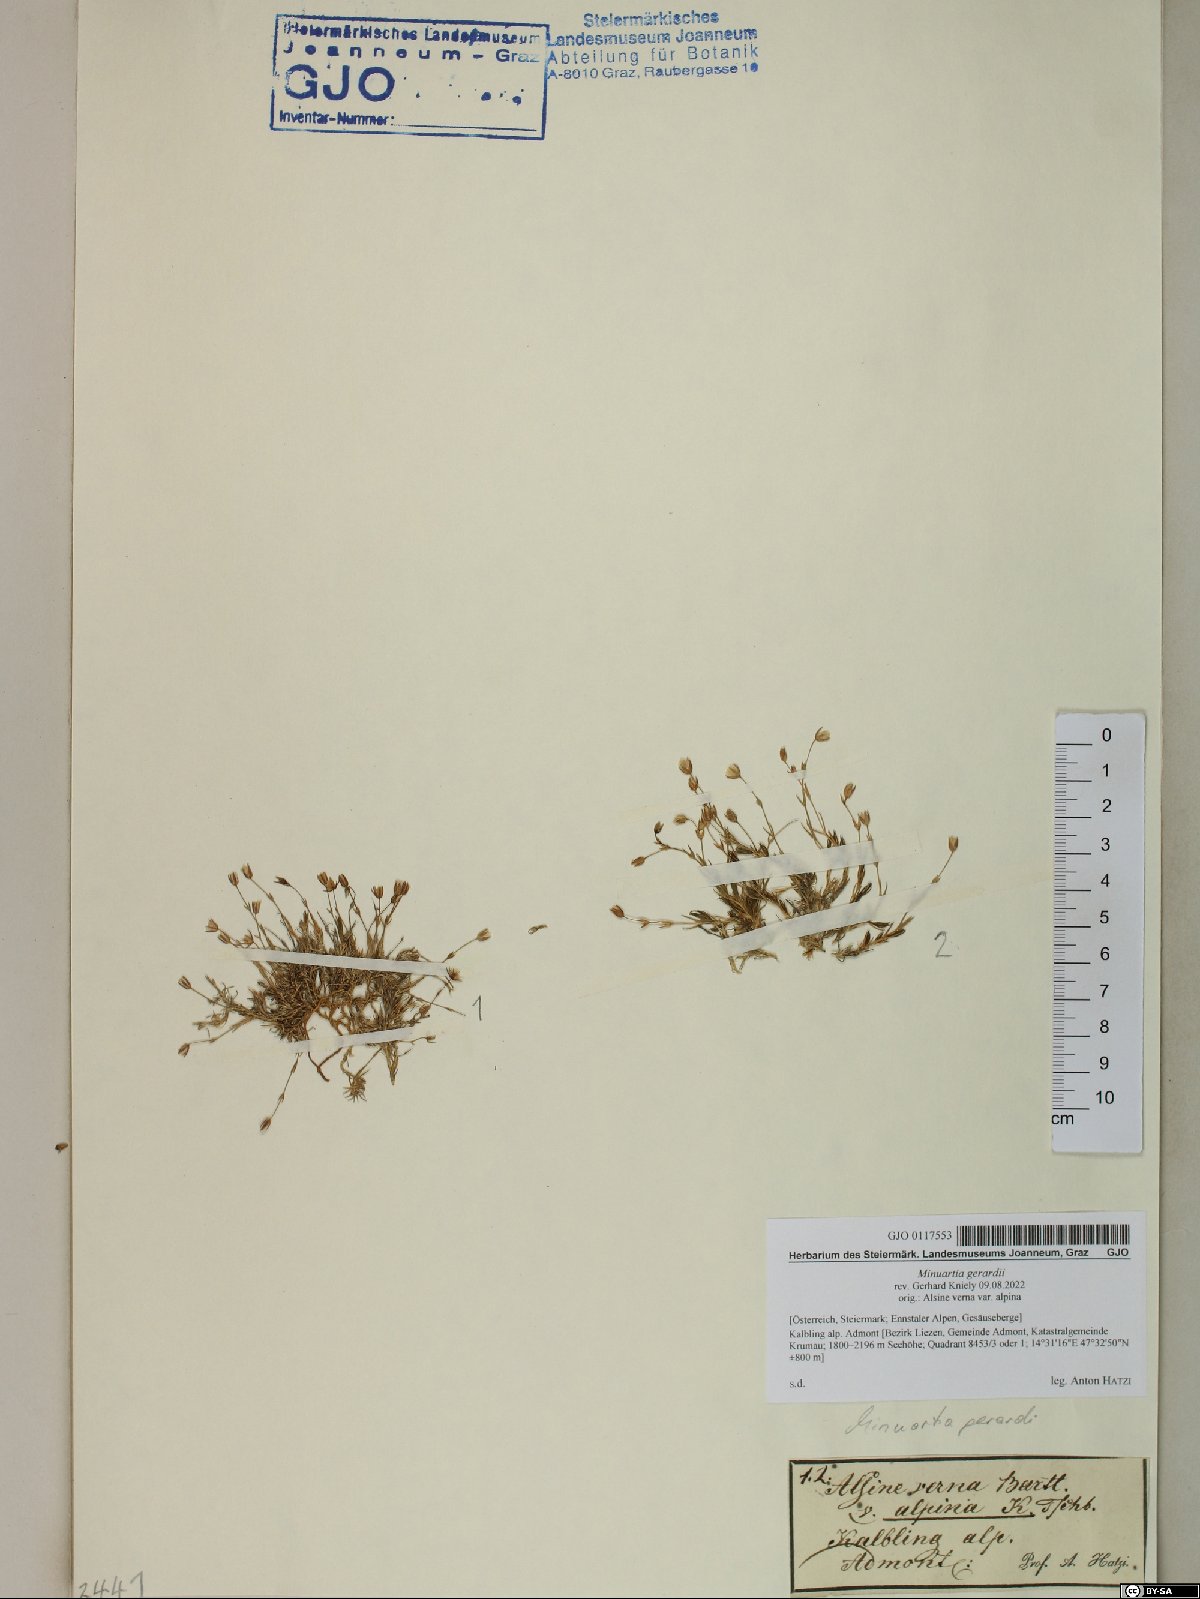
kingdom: Plantae
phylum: Tracheophyta
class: Magnoliopsida
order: Caryophyllales
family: Caryophyllaceae
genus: Sabulina
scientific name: Sabulina verna
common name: Spring sandwort
